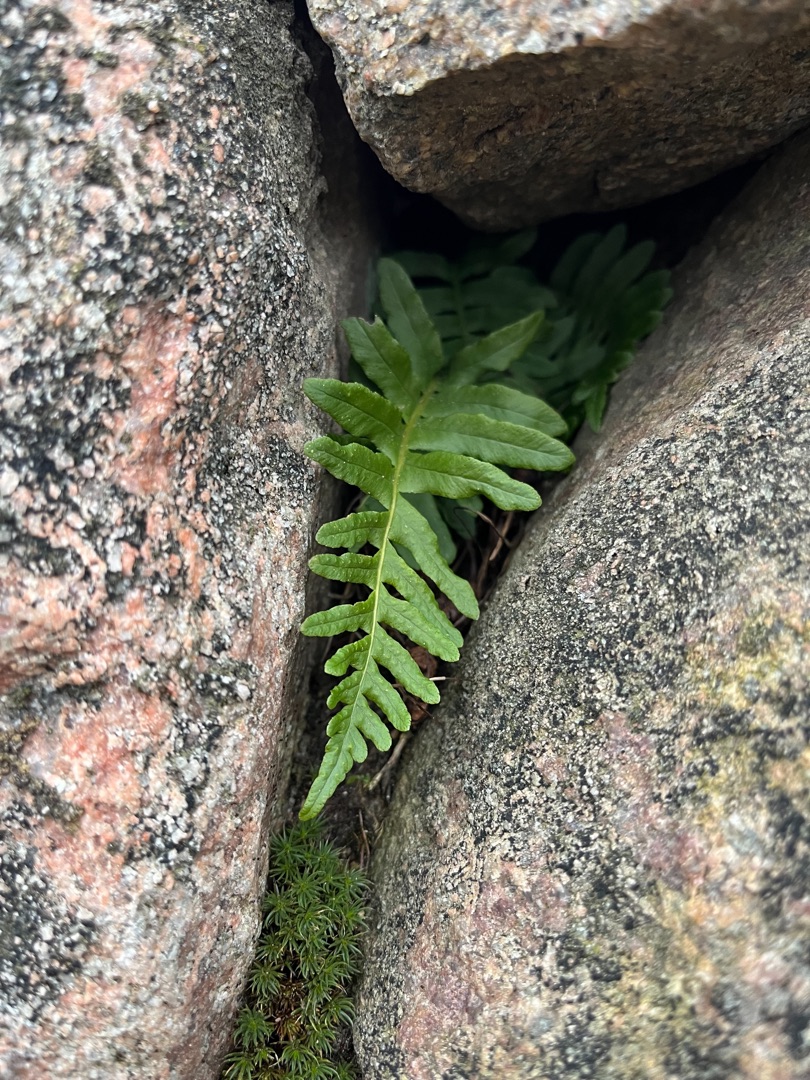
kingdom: Plantae
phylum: Tracheophyta
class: Polypodiopsida
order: Polypodiales
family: Polypodiaceae
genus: Polypodium
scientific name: Polypodium vulgare
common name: Almindelig engelsød
